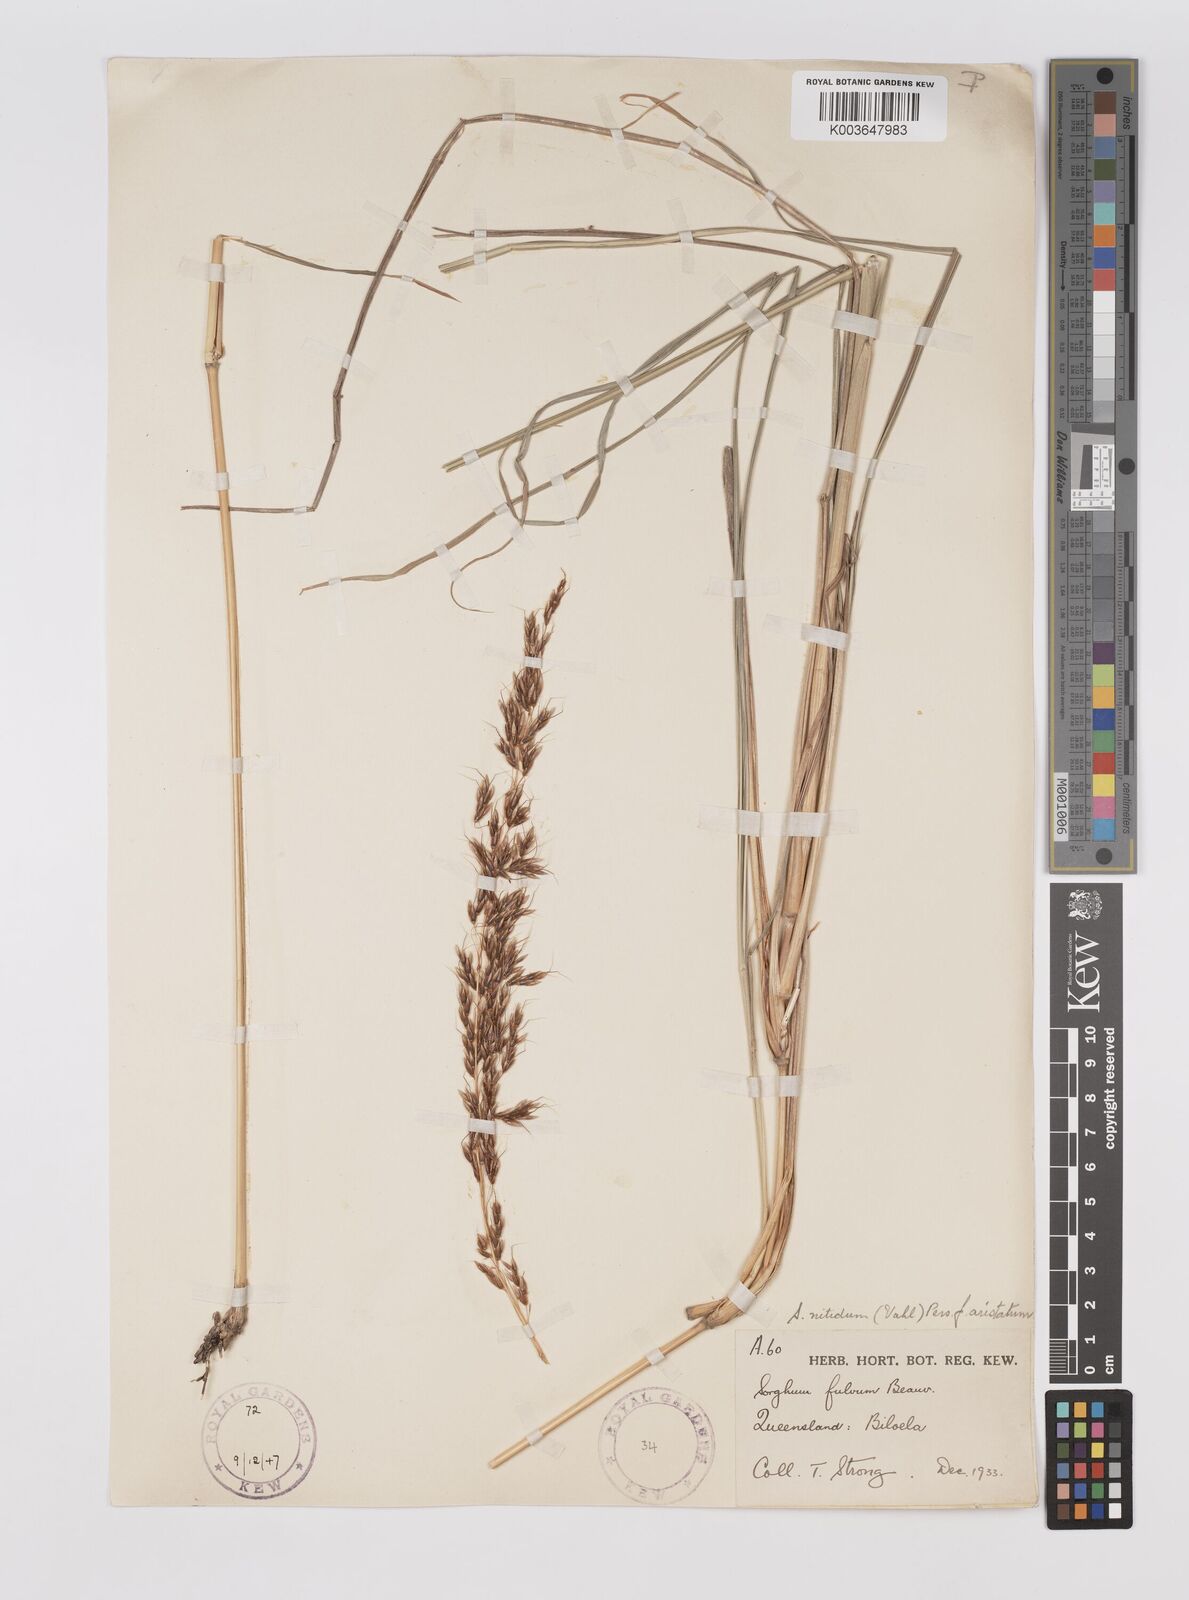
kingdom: Plantae
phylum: Tracheophyta
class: Liliopsida
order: Poales
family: Poaceae
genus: Sorghum
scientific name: Sorghum nitidum
